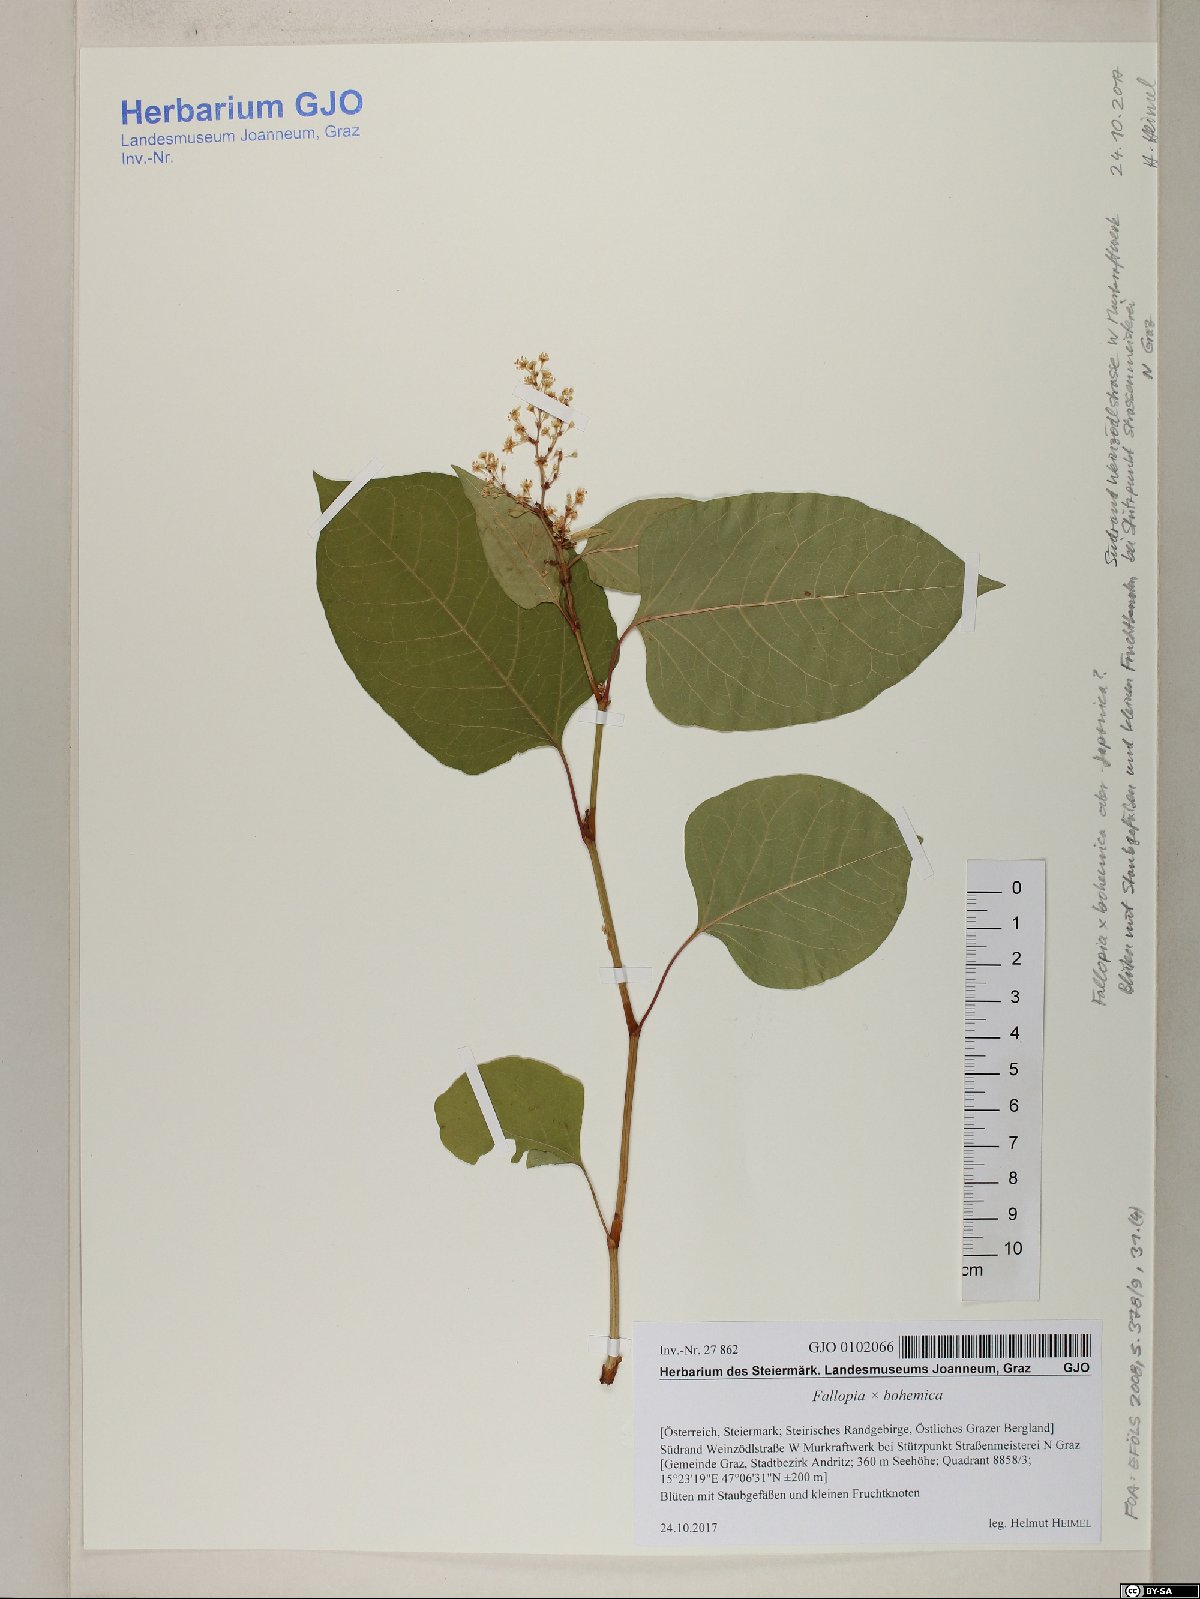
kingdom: Plantae
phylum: Tracheophyta
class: Magnoliopsida
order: Caryophyllales
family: Polygonaceae
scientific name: Polygonaceae
